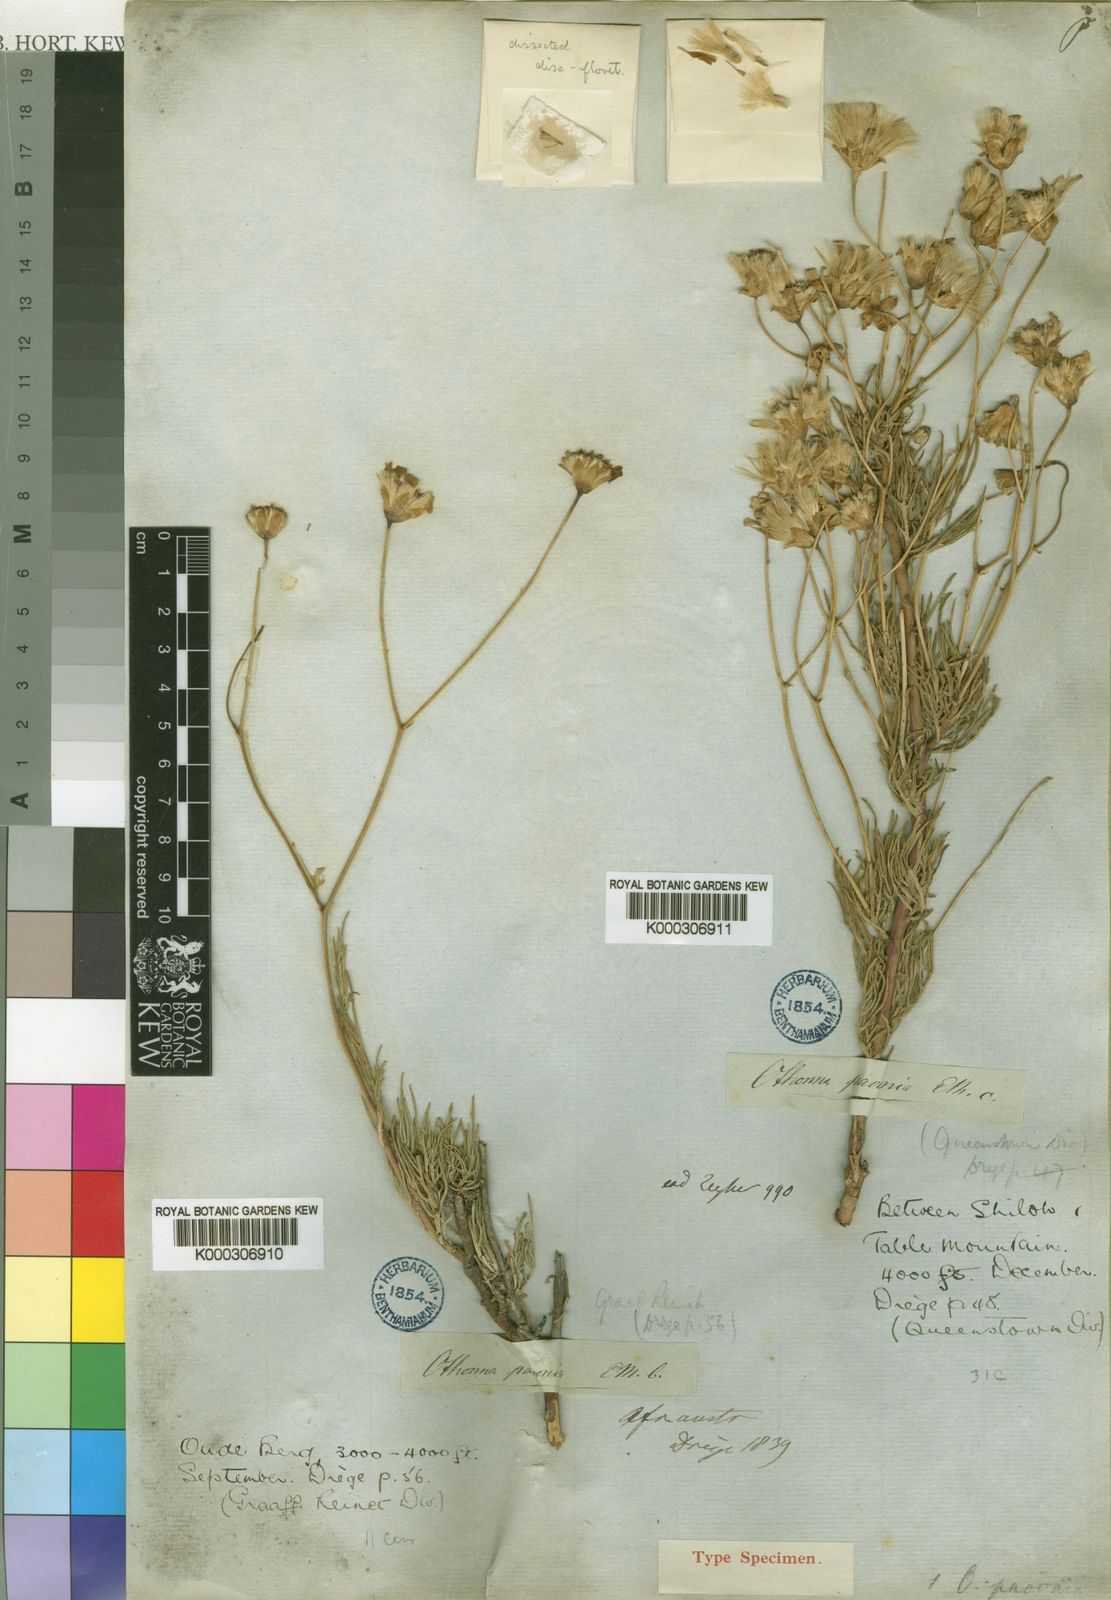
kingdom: Plantae
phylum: Tracheophyta
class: Magnoliopsida
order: Asterales
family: Asteraceae
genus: Othonna
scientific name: Othonna
